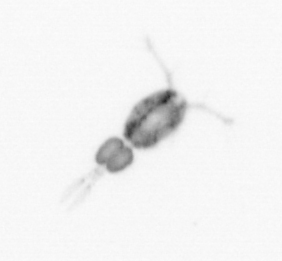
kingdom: Animalia
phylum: Arthropoda
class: Copepoda
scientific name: Copepoda
